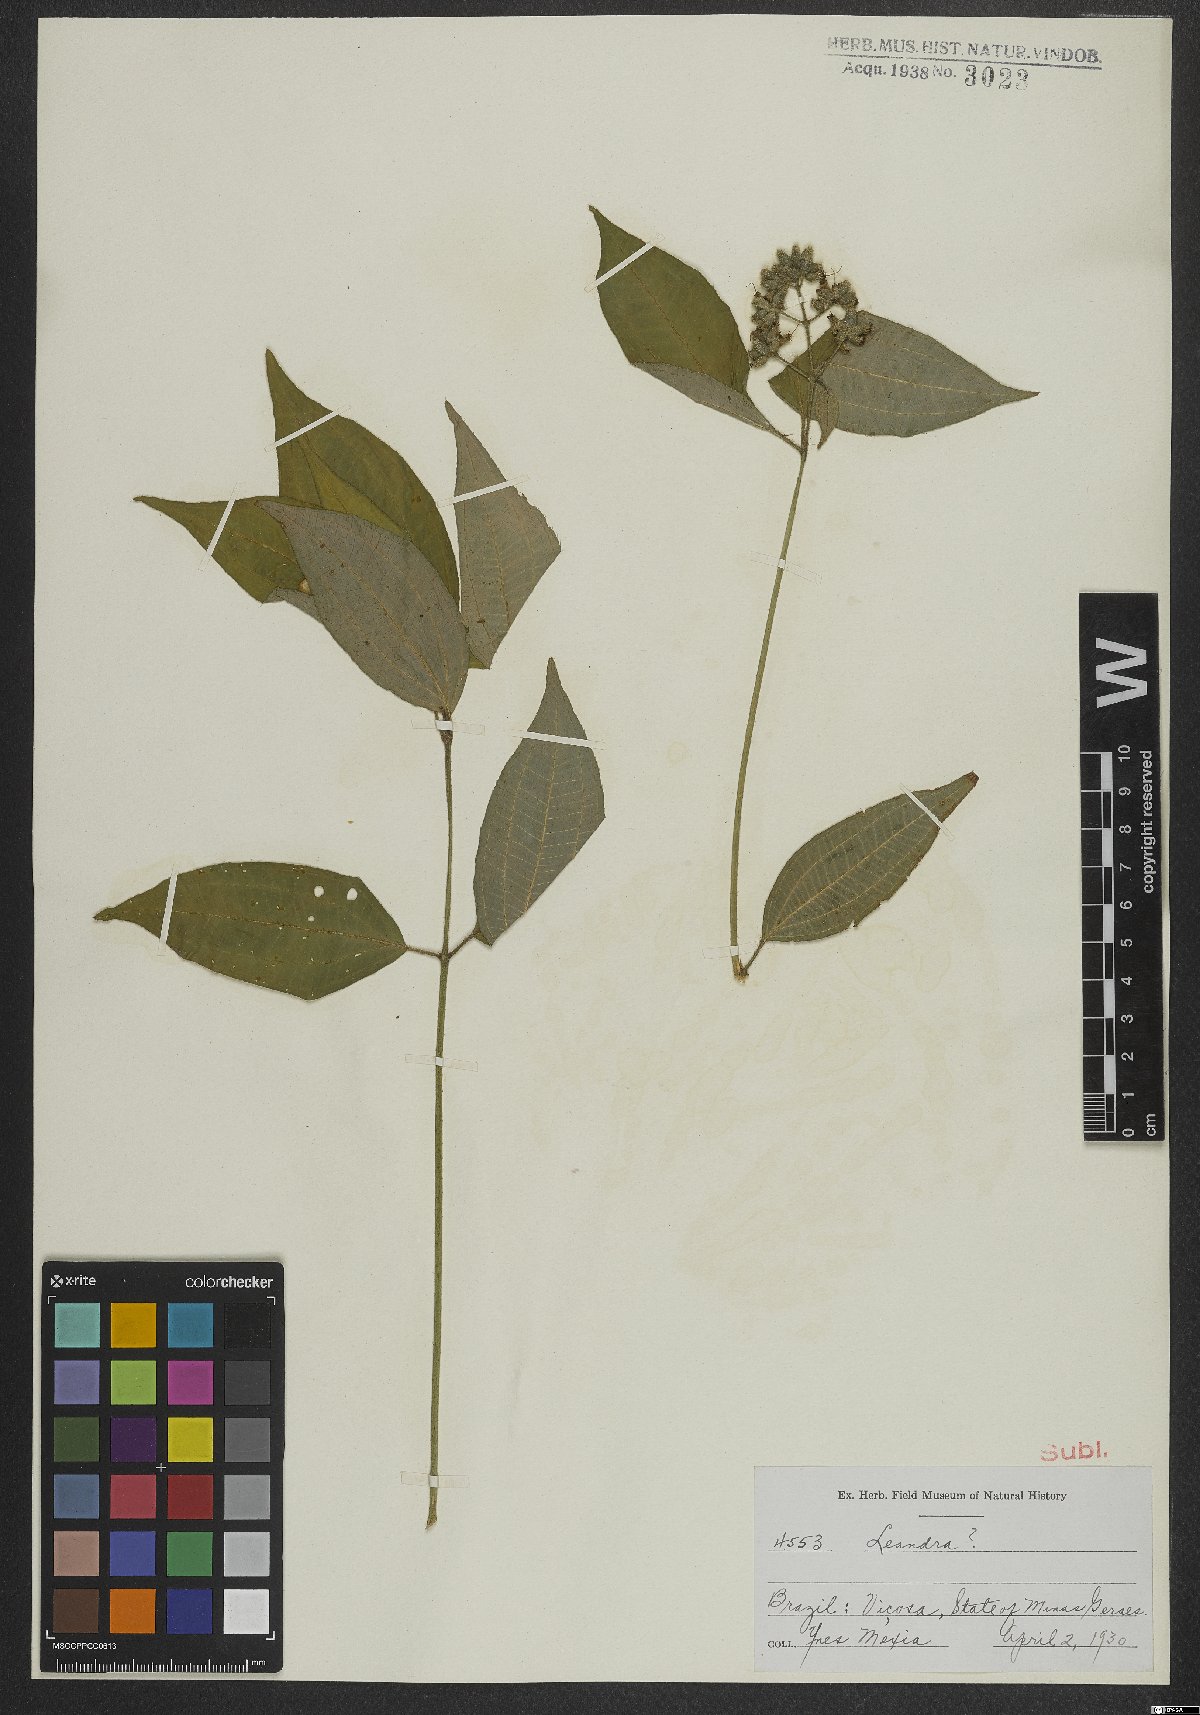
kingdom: Plantae
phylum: Tracheophyta
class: Magnoliopsida
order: Myrtales
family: Melastomataceae
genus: Miconia
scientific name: Miconia
